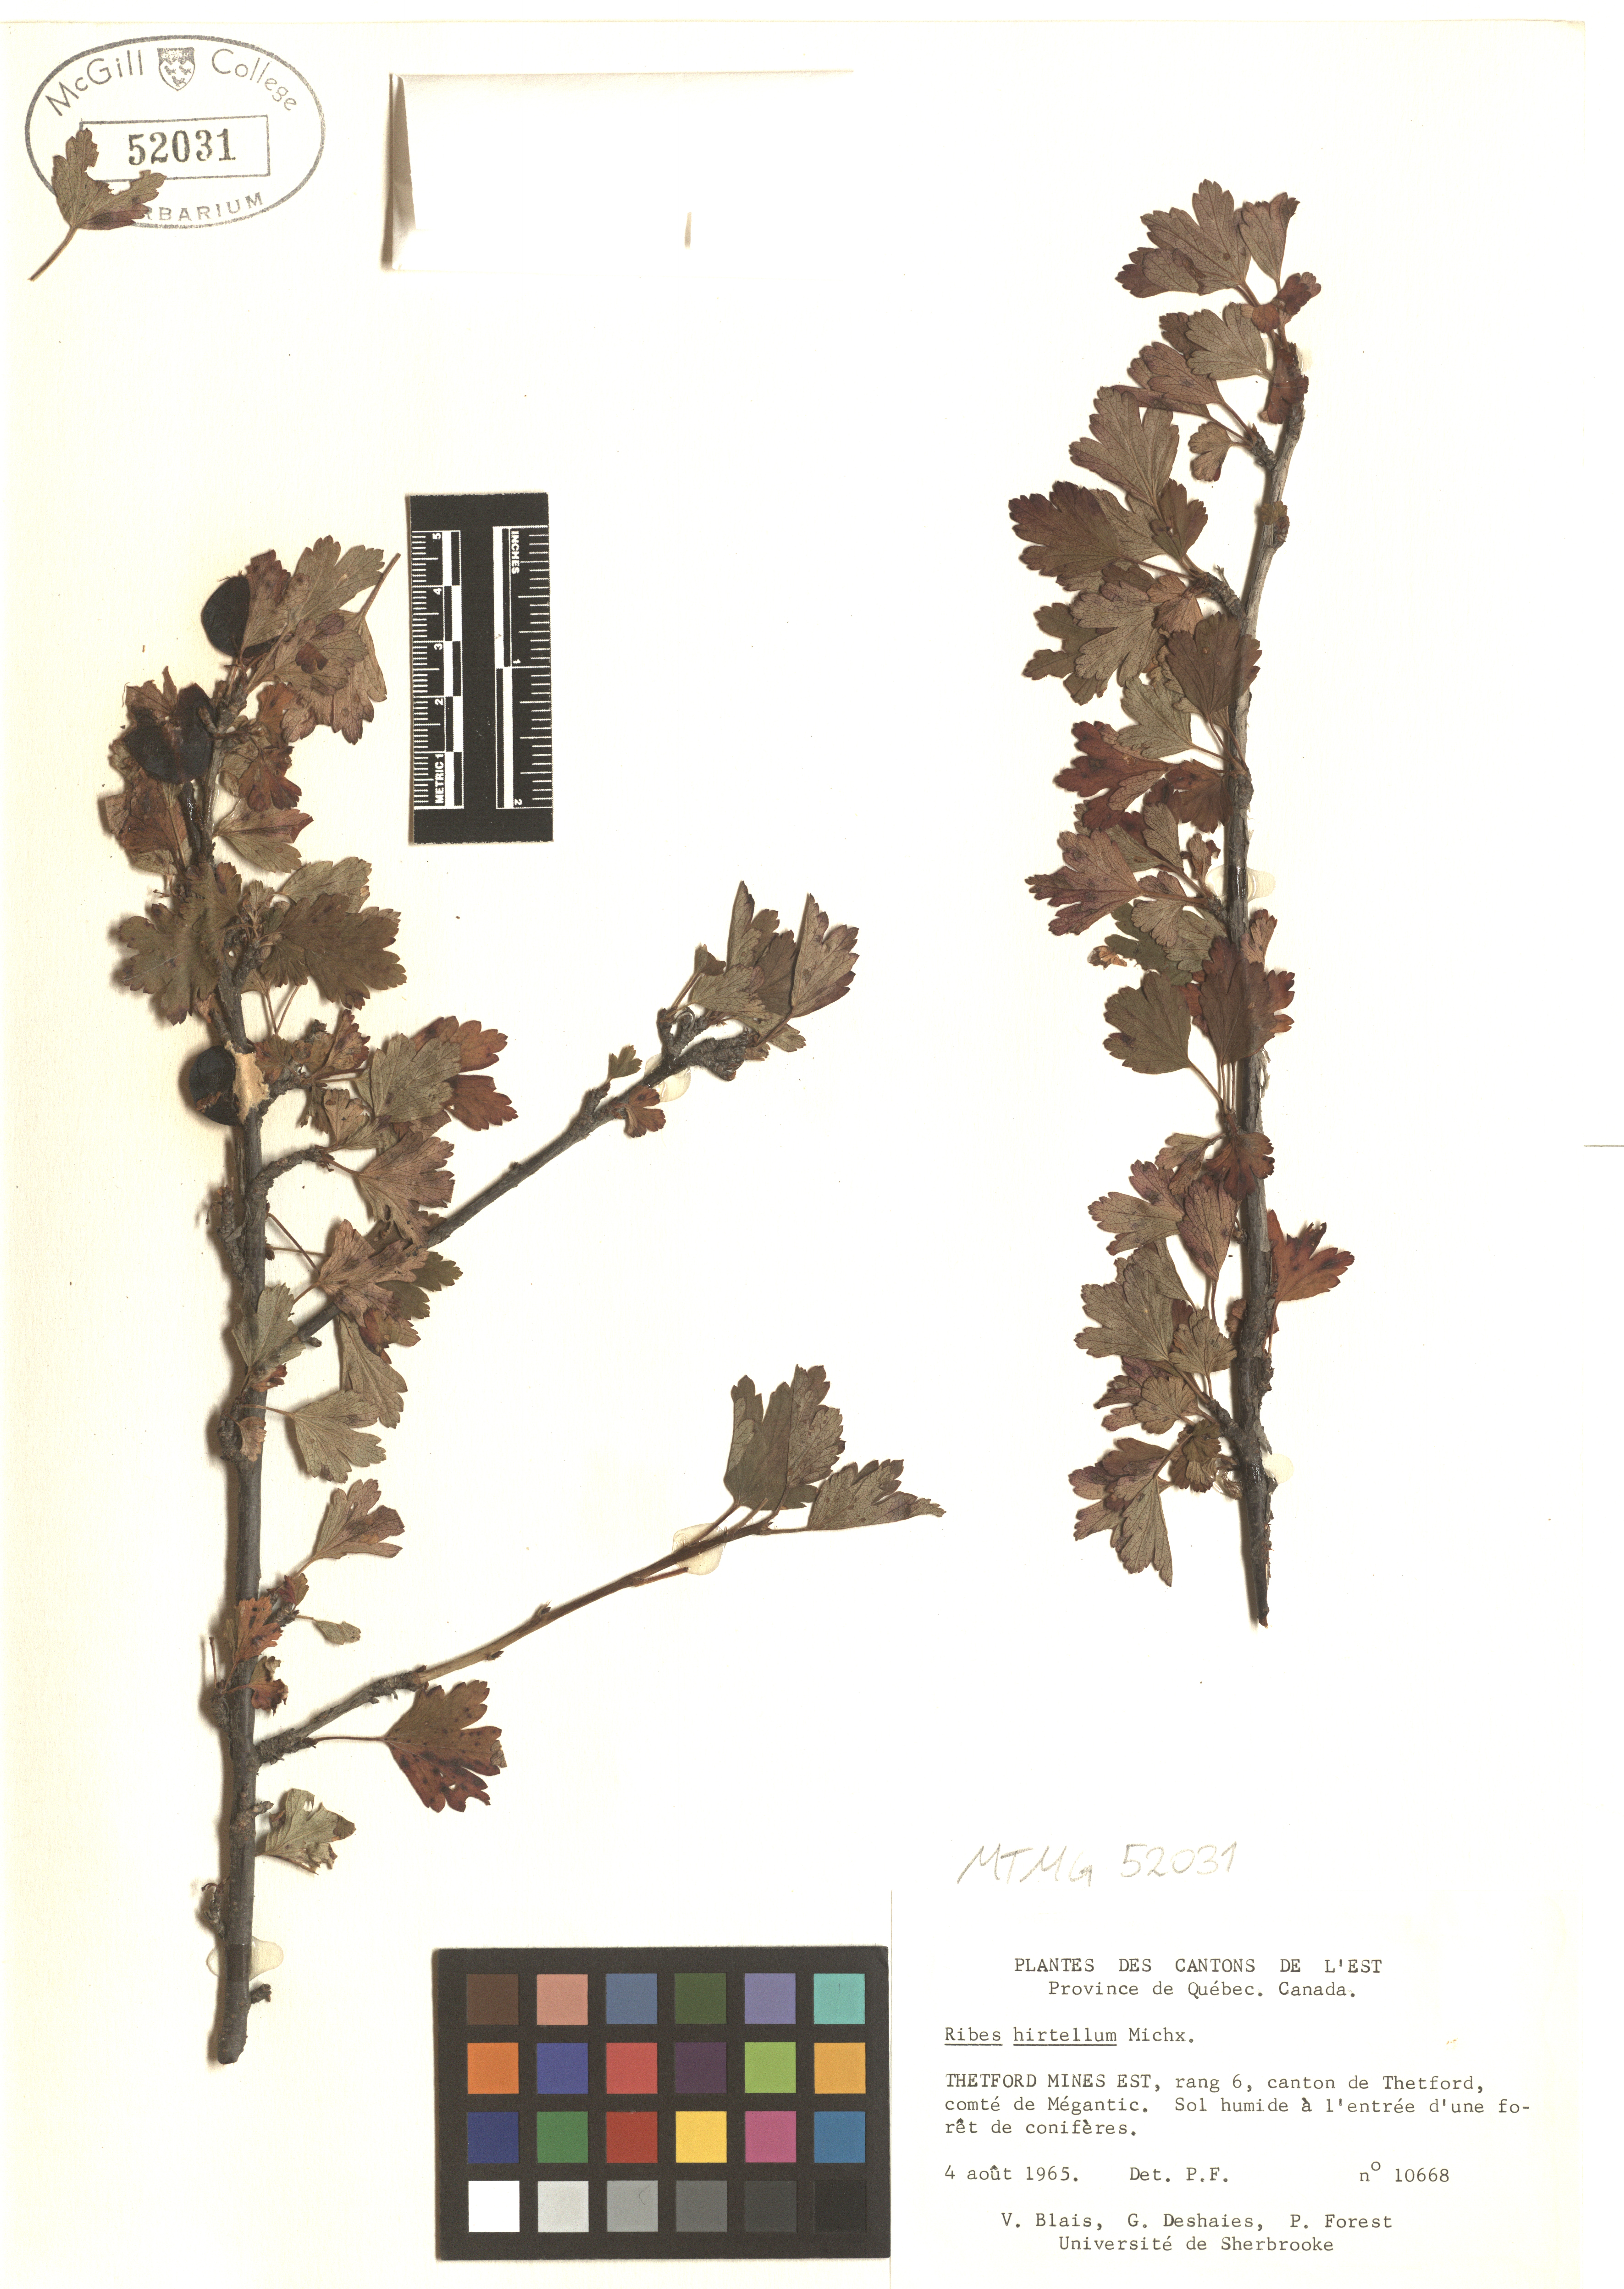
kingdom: Plantae
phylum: Tracheophyta
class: Magnoliopsida
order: Saxifragales
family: Grossulariaceae
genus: Ribes
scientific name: Ribes hirtellum
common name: Hairy gooseberry
